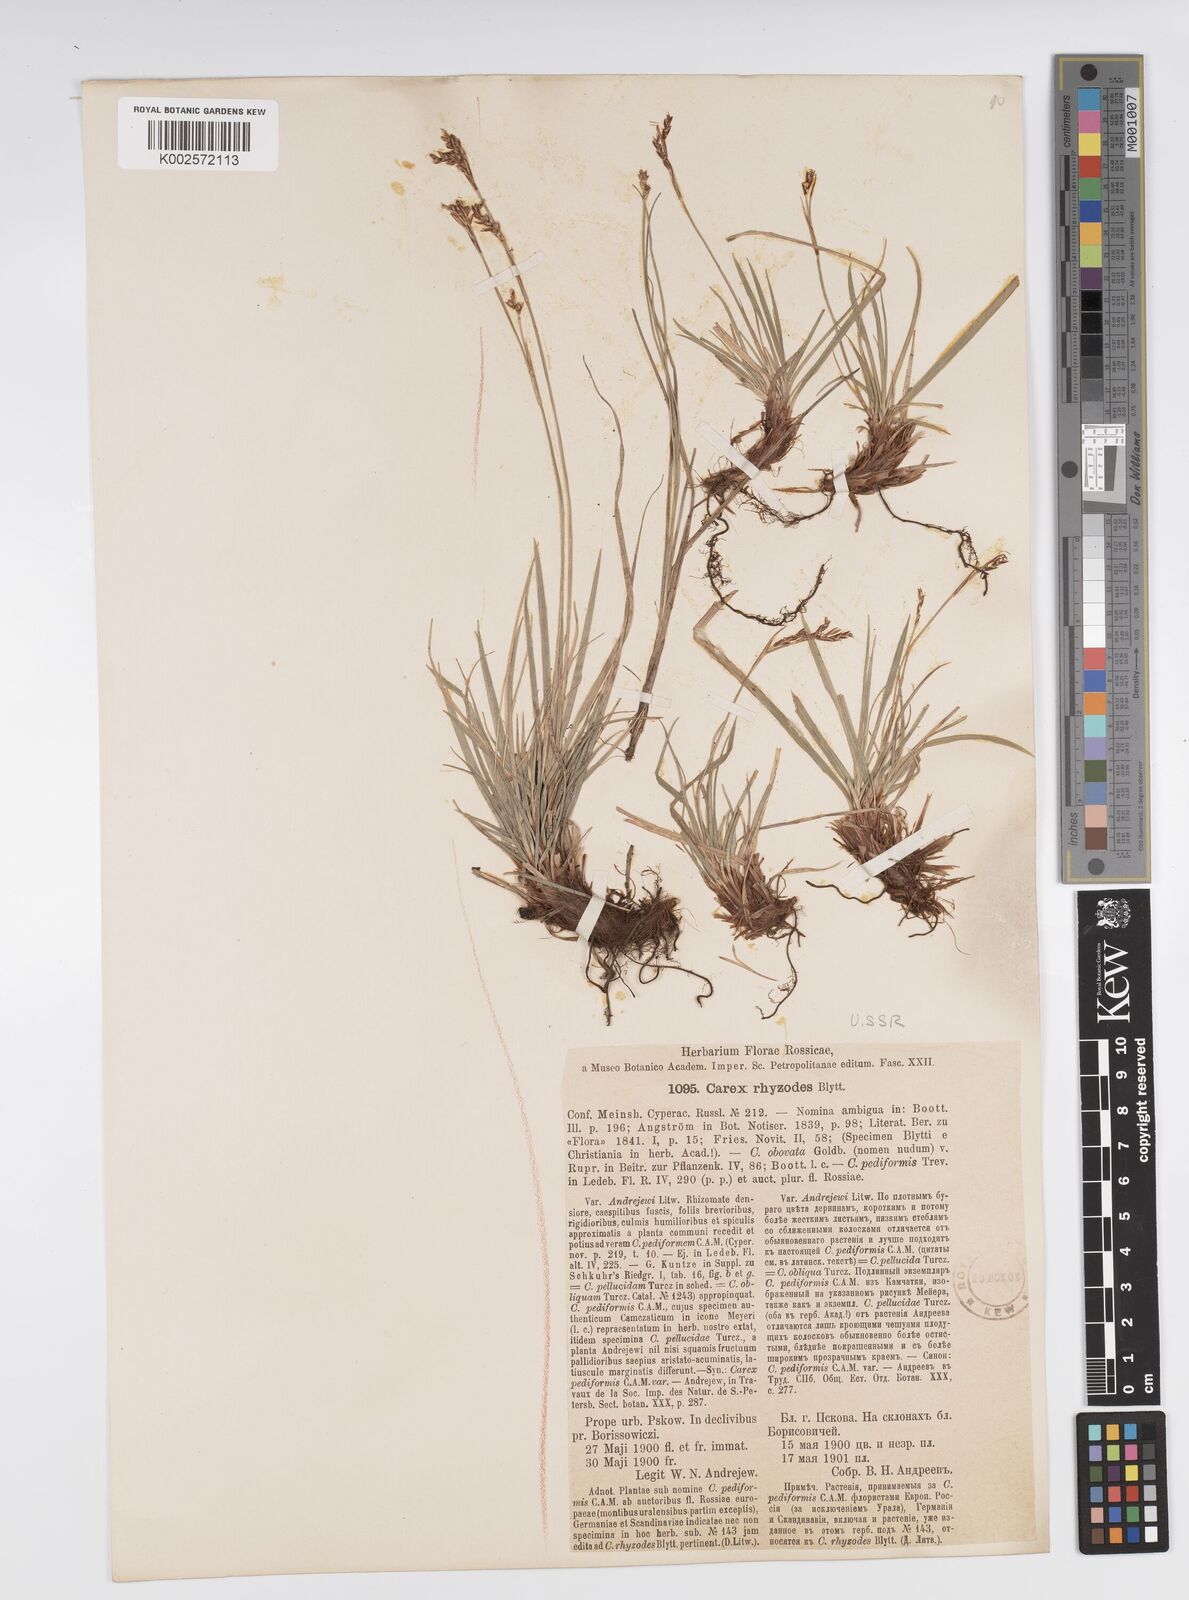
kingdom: Plantae
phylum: Tracheophyta
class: Liliopsida
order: Poales
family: Cyperaceae
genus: Carex
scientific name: Carex pediformis
